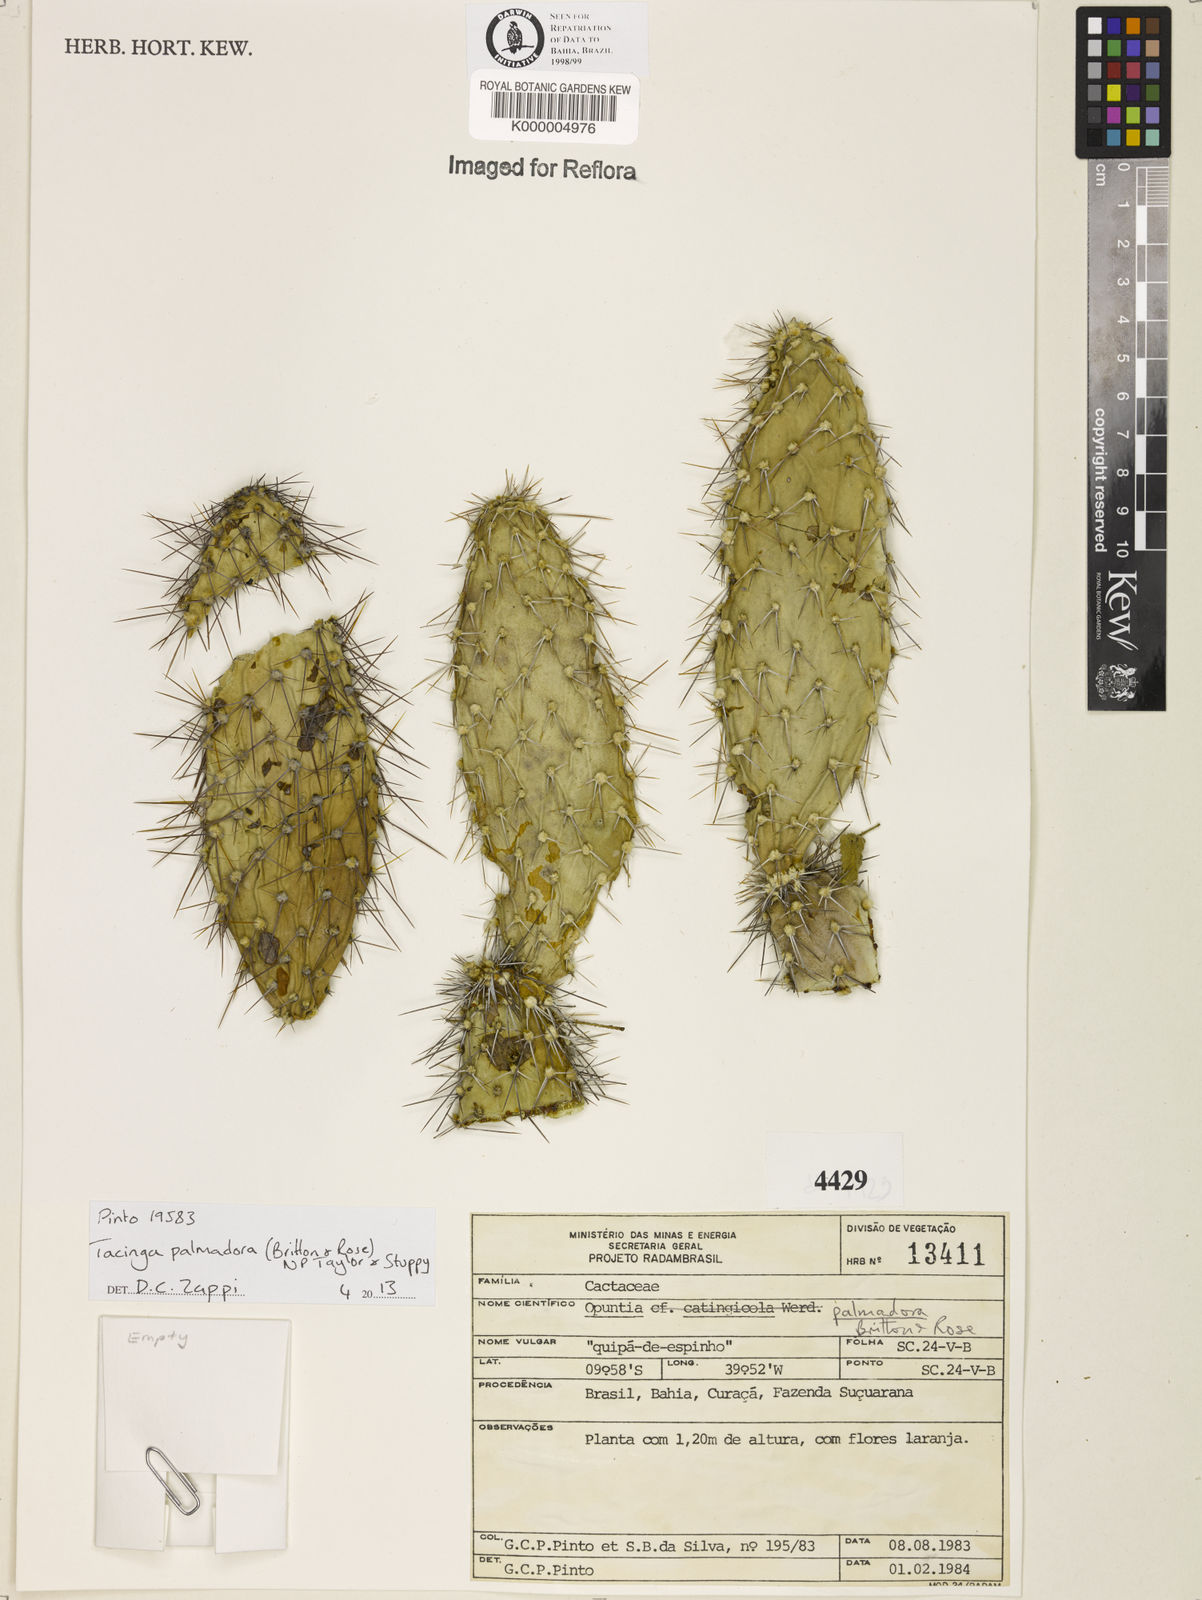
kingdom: Plantae
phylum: Tracheophyta
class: Magnoliopsida
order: Caryophyllales
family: Cactaceae
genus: Tacinga
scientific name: Tacinga palmadora
